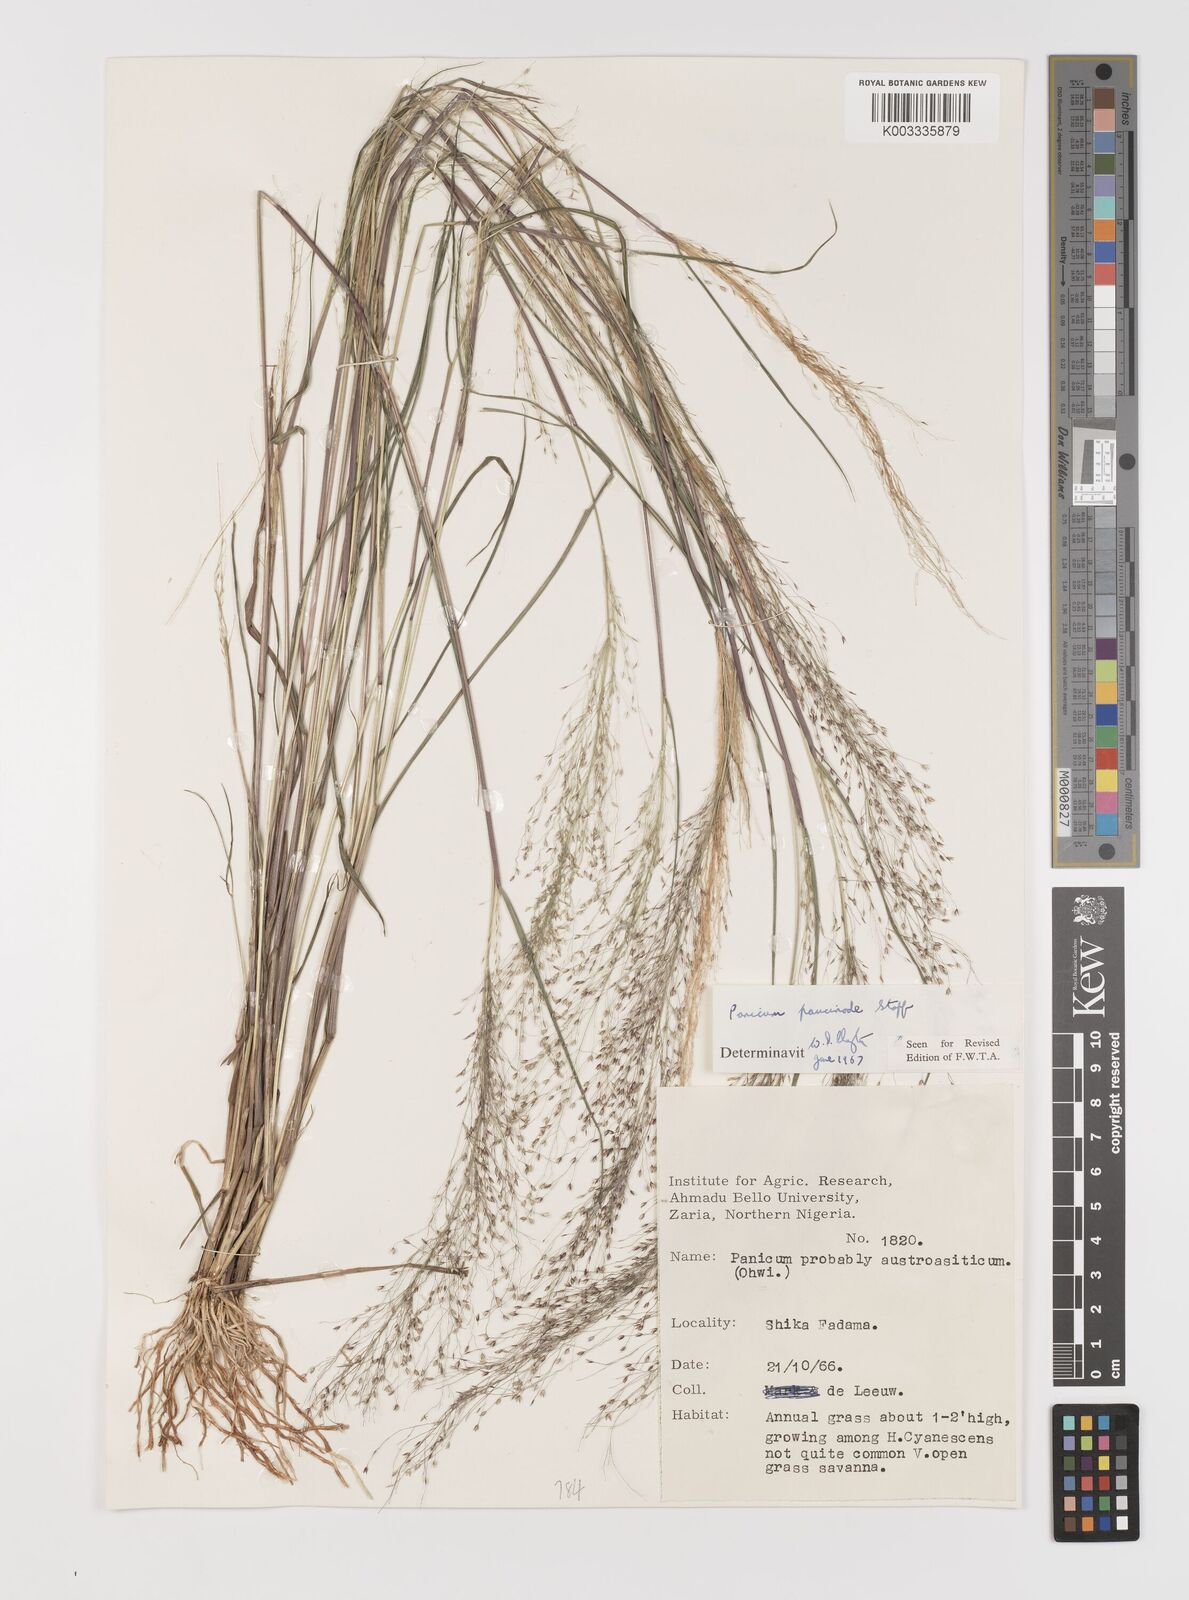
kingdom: Plantae
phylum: Tracheophyta
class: Liliopsida
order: Poales
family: Poaceae
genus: Panicum
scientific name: Panicum paucinode
